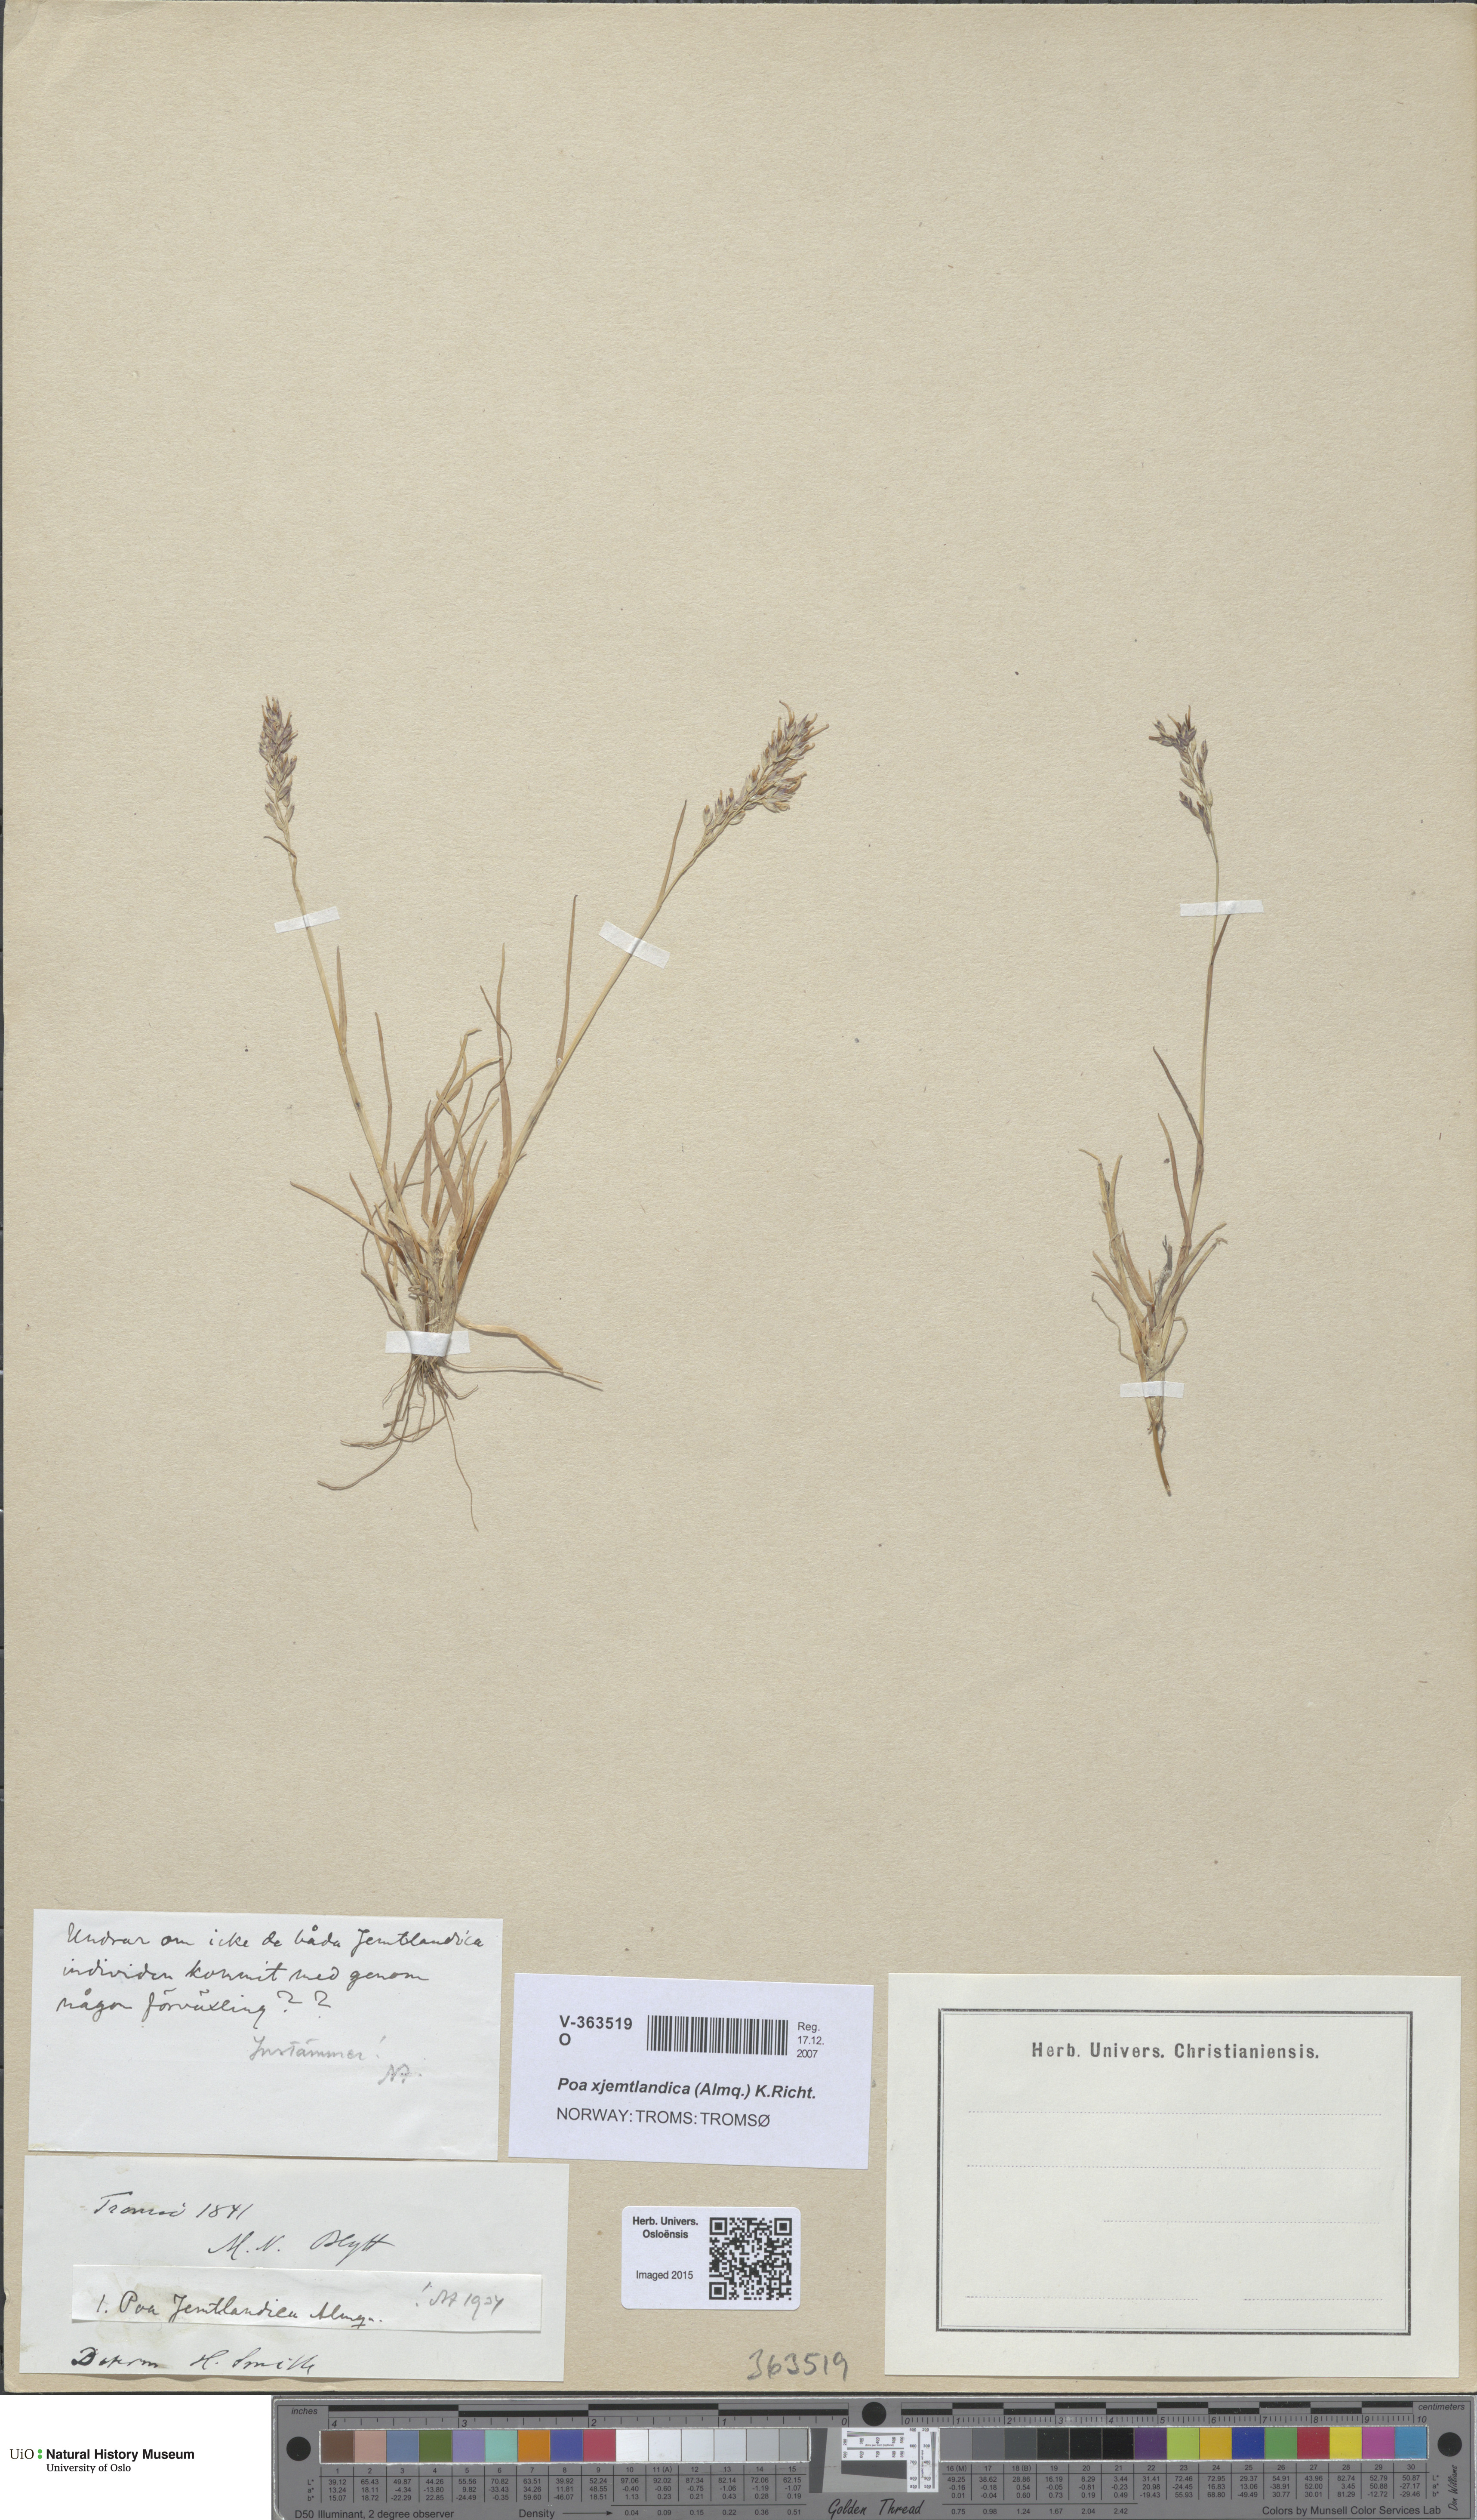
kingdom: Plantae
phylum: Tracheophyta
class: Liliopsida
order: Poales
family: Poaceae
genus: Poa
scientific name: Poa jemtlandica
